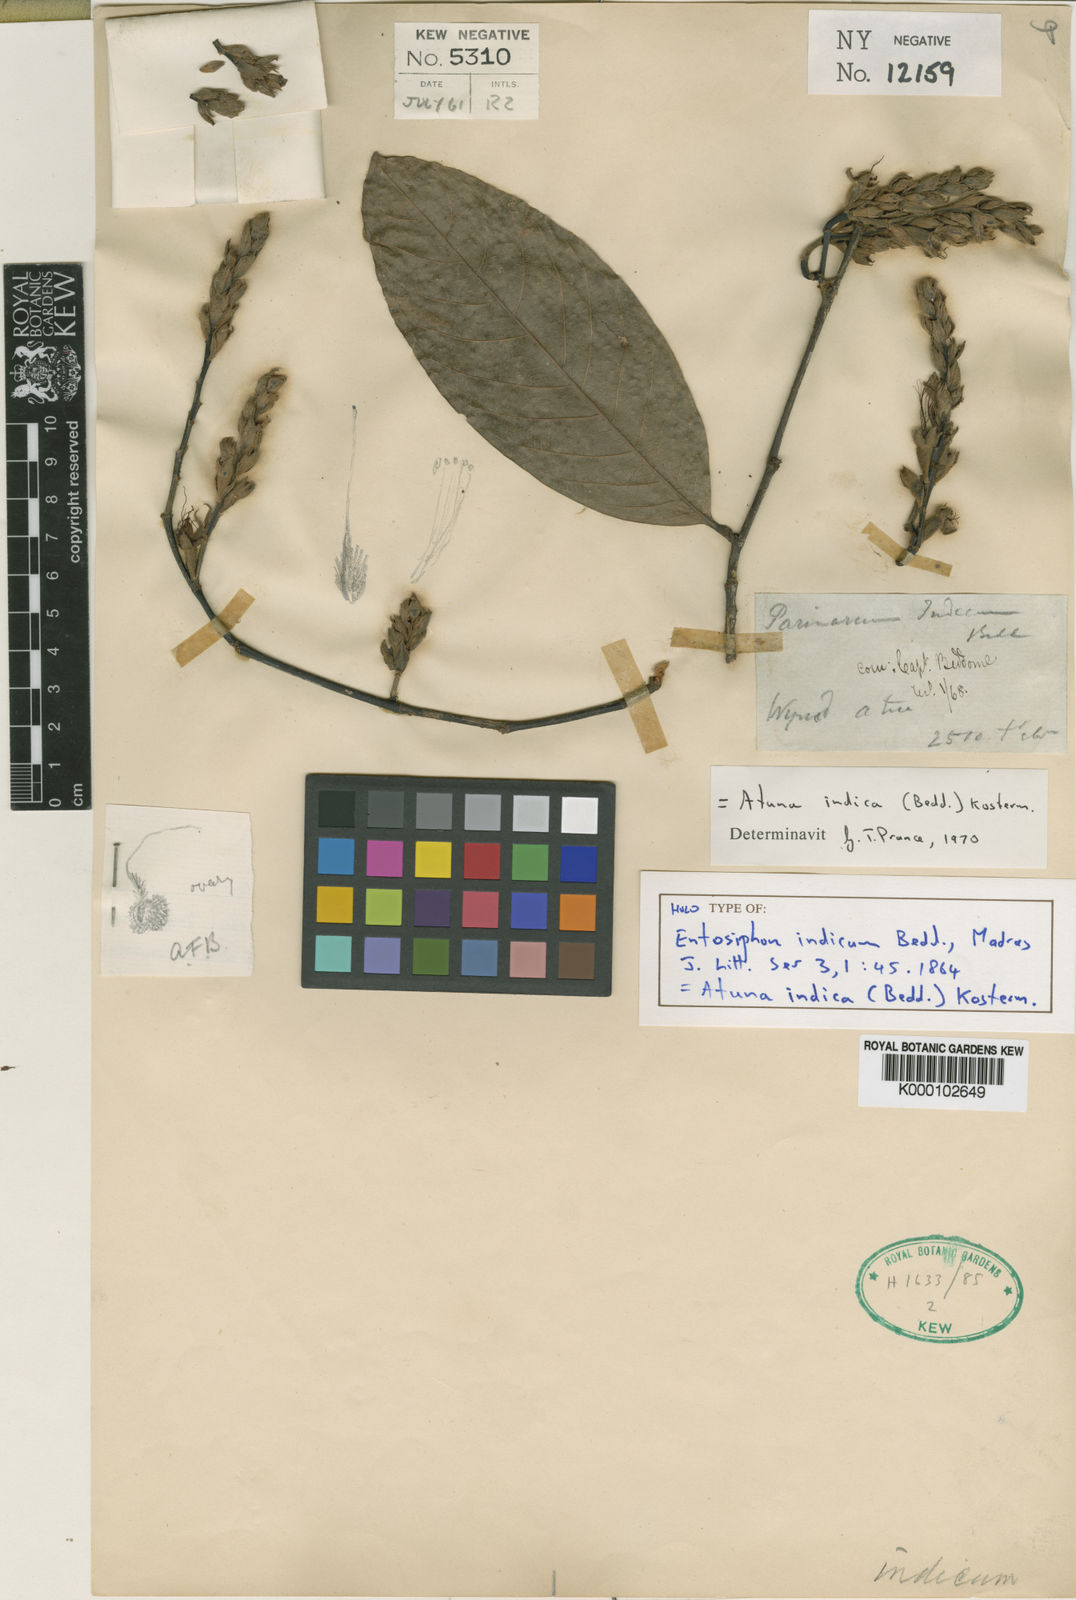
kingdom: Plantae
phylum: Tracheophyta
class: Magnoliopsida
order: Malpighiales
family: Chrysobalanaceae
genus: Atuna
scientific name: Atuna indica
